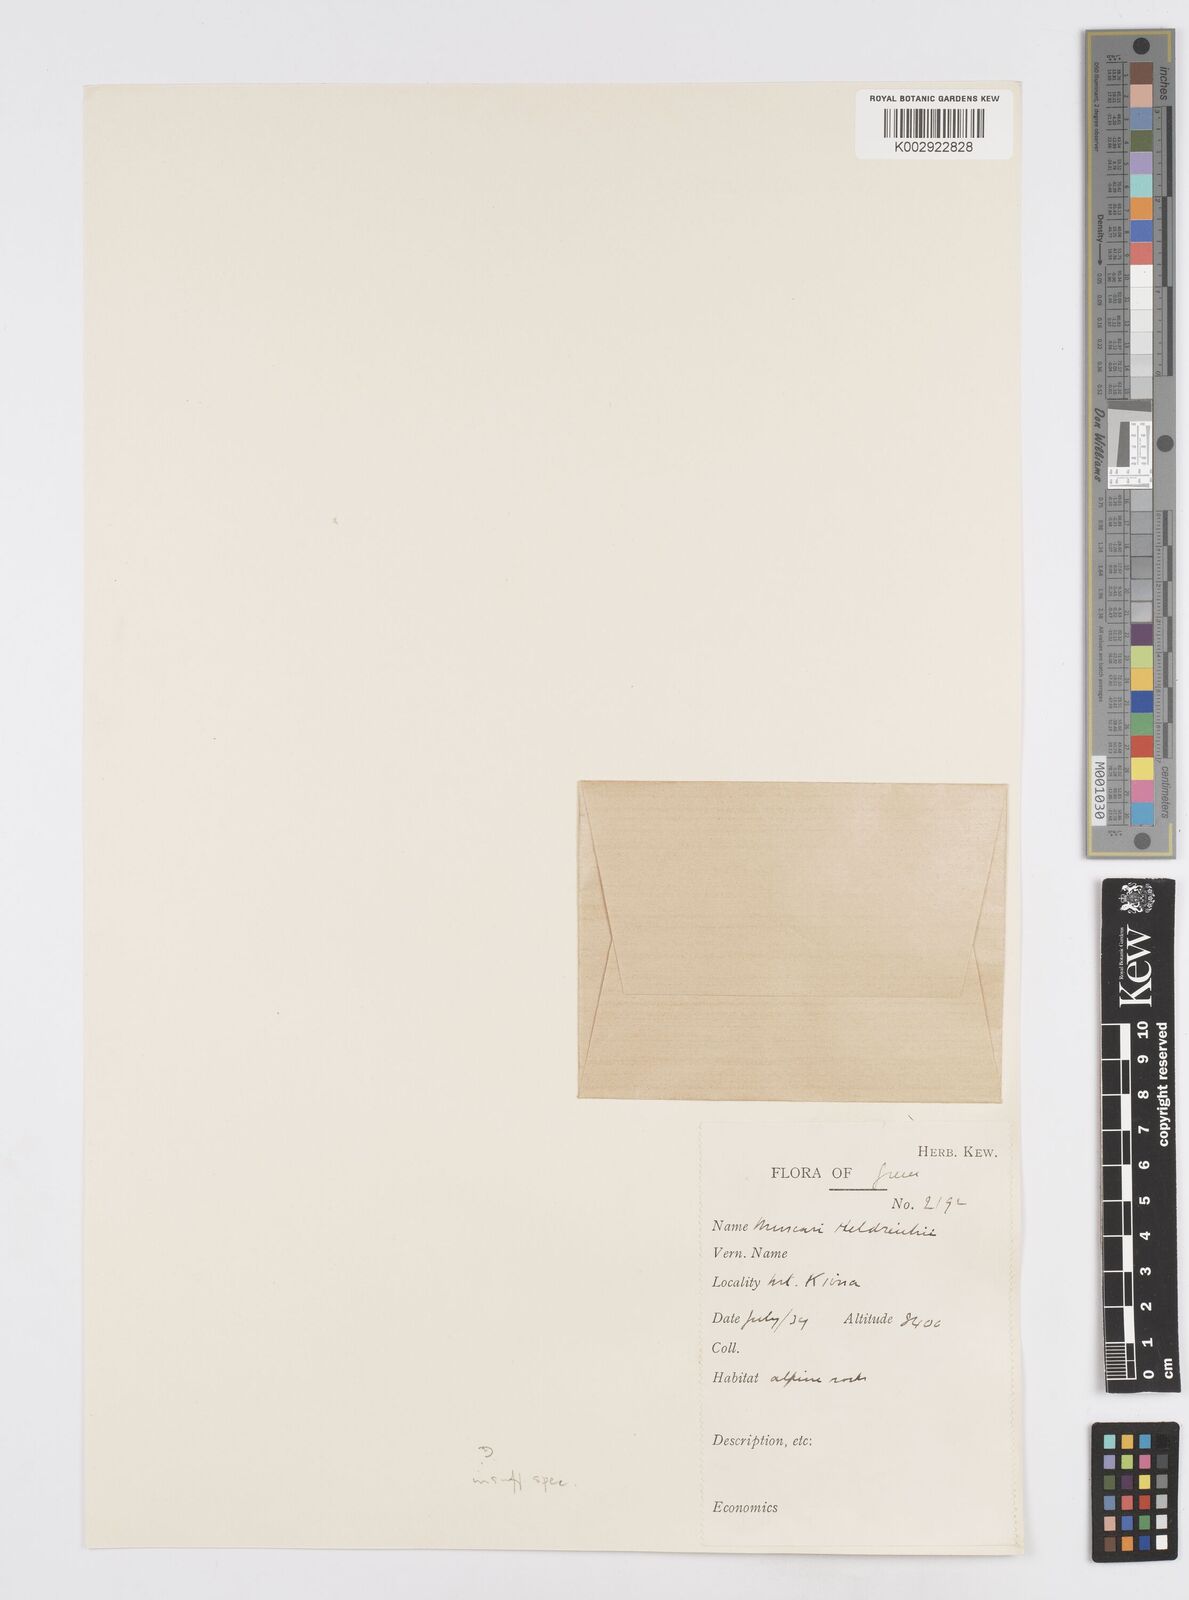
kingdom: Plantae
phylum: Tracheophyta
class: Liliopsida
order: Asparagales
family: Asparagaceae
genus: Muscari
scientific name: Muscari botryoides
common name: Compact grape-hyacinth
